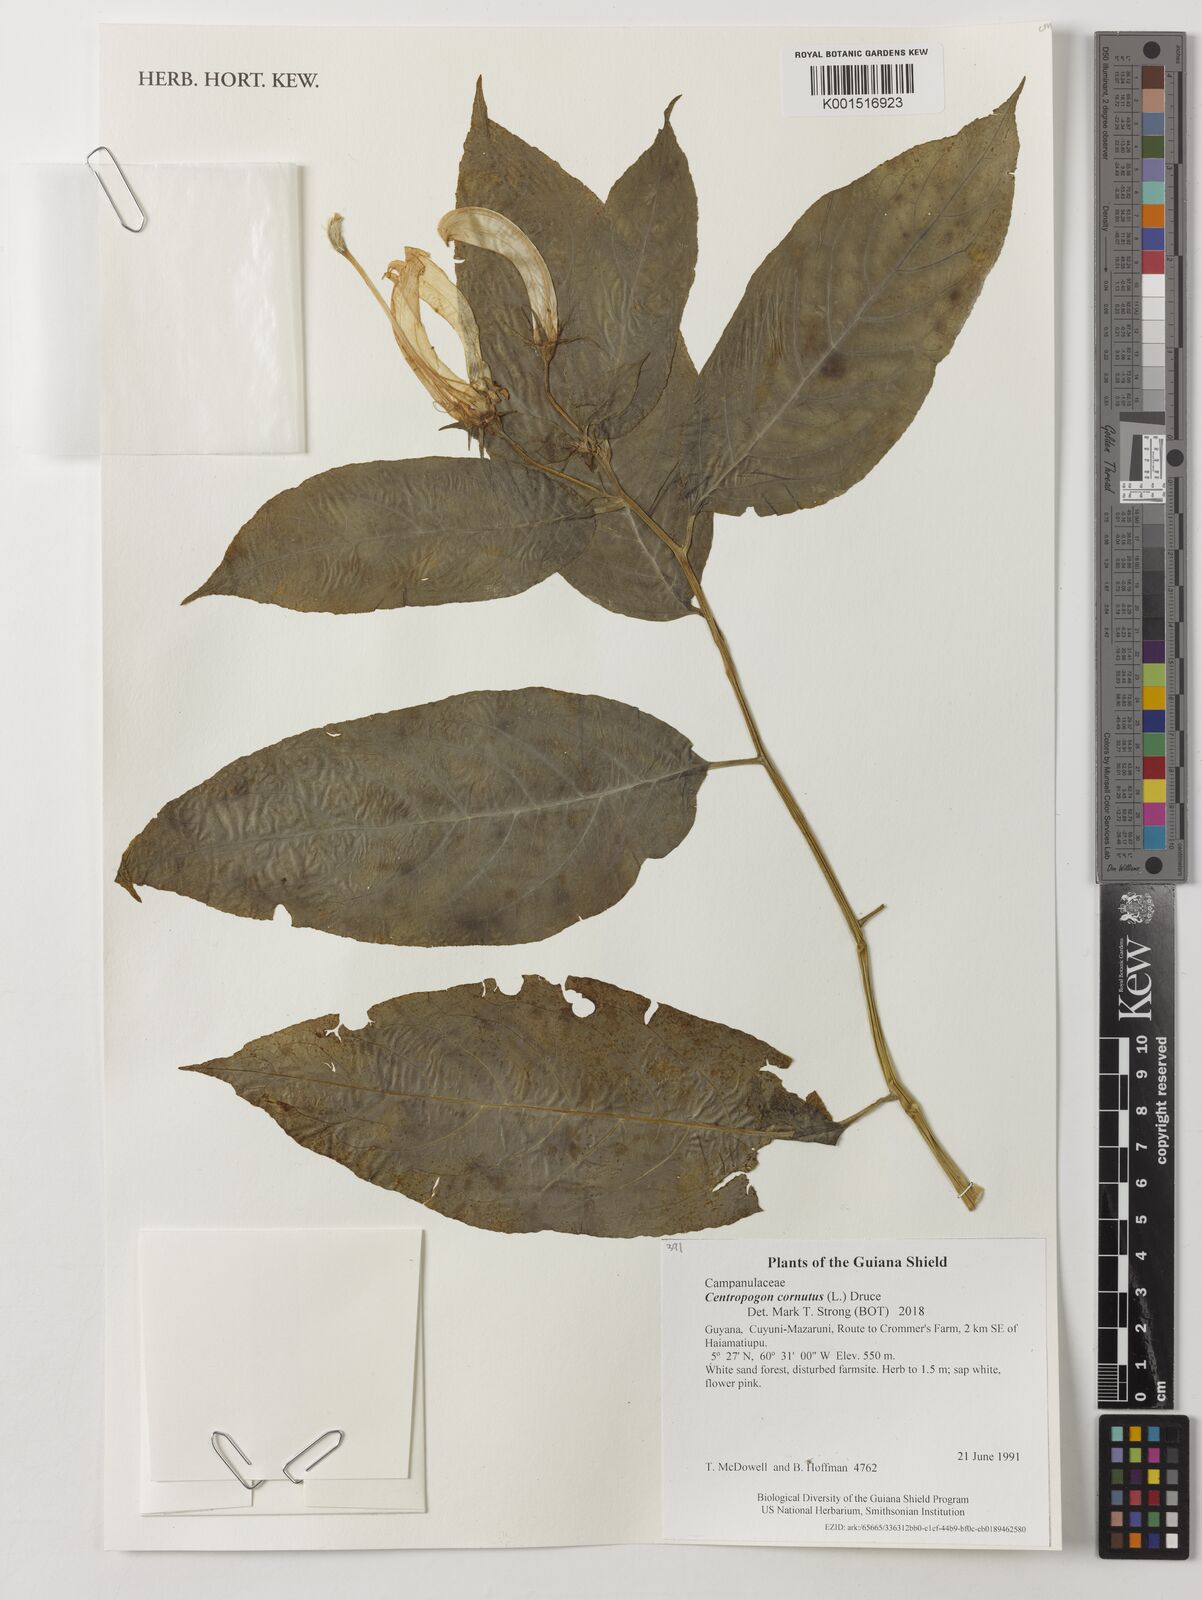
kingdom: Plantae
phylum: Tracheophyta
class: Magnoliopsida
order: Asterales
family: Campanulaceae
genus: Centropogon
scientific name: Centropogon cornutus
